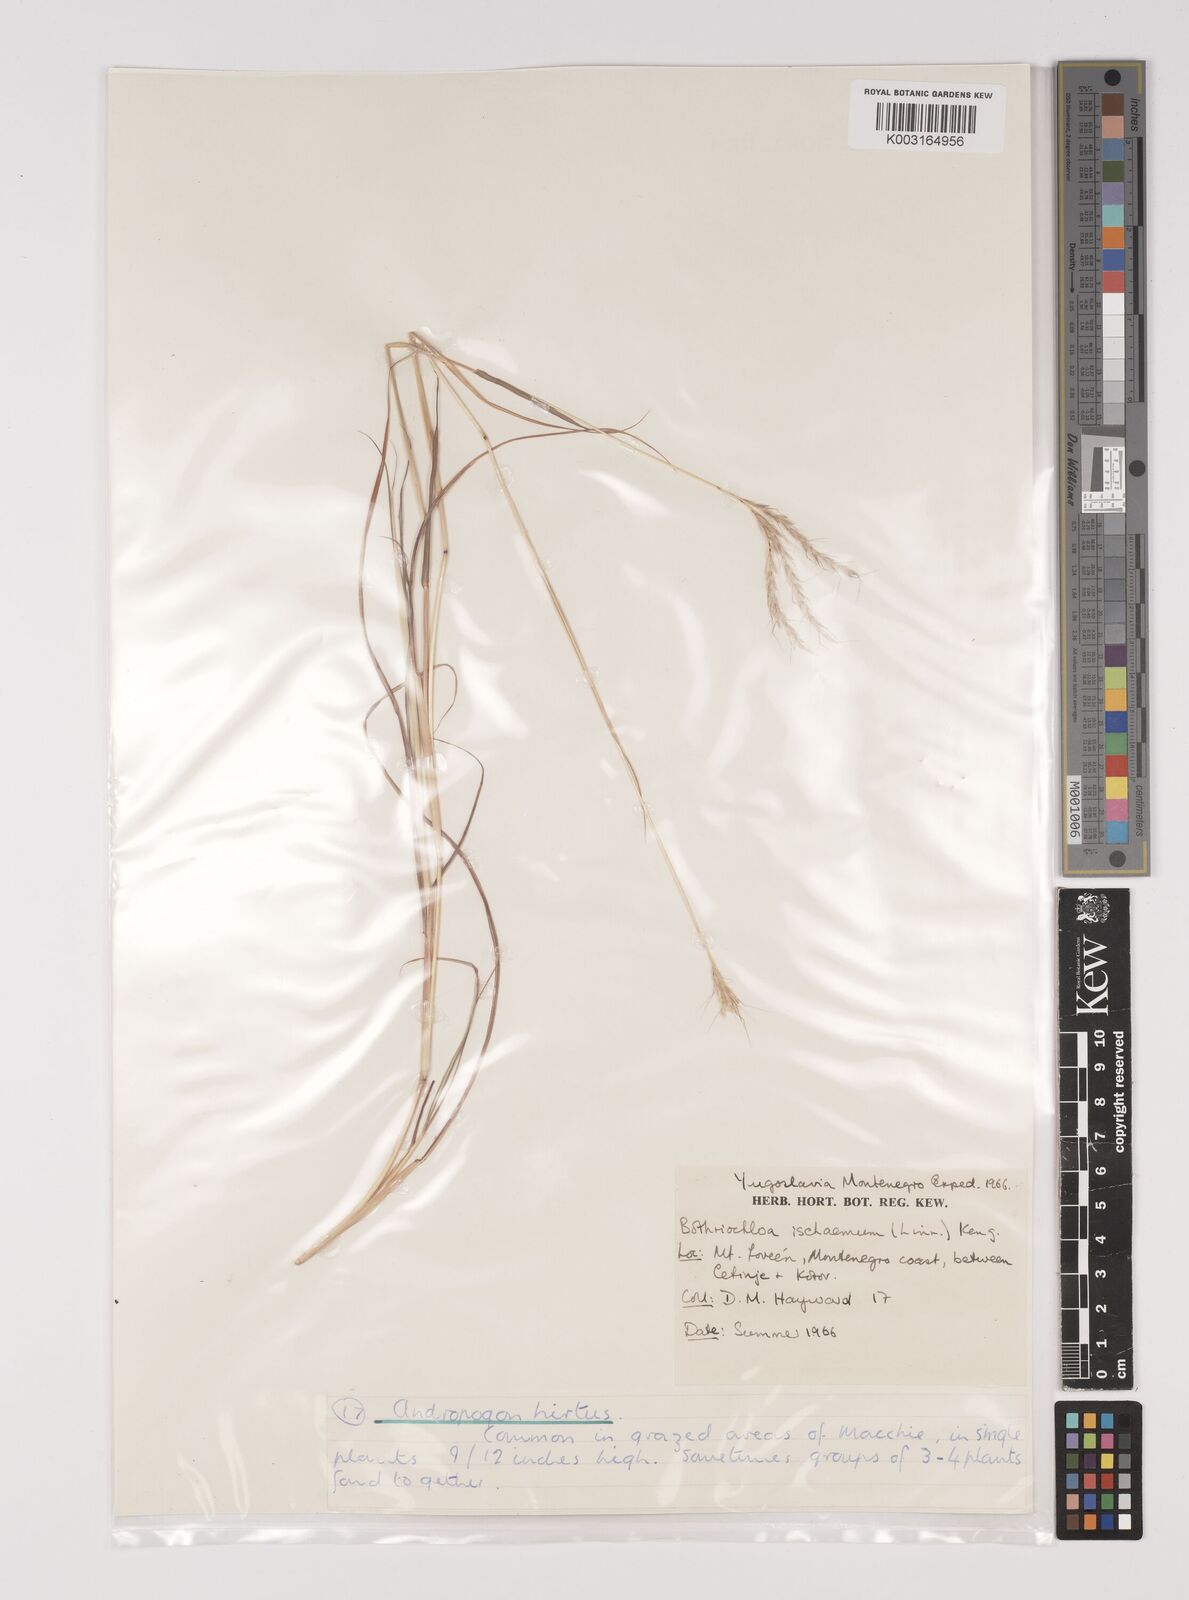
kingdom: Plantae
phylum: Tracheophyta
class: Liliopsida
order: Poales
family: Poaceae
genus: Bothriochloa
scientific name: Bothriochloa ischaemum
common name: Yellow bluestem
